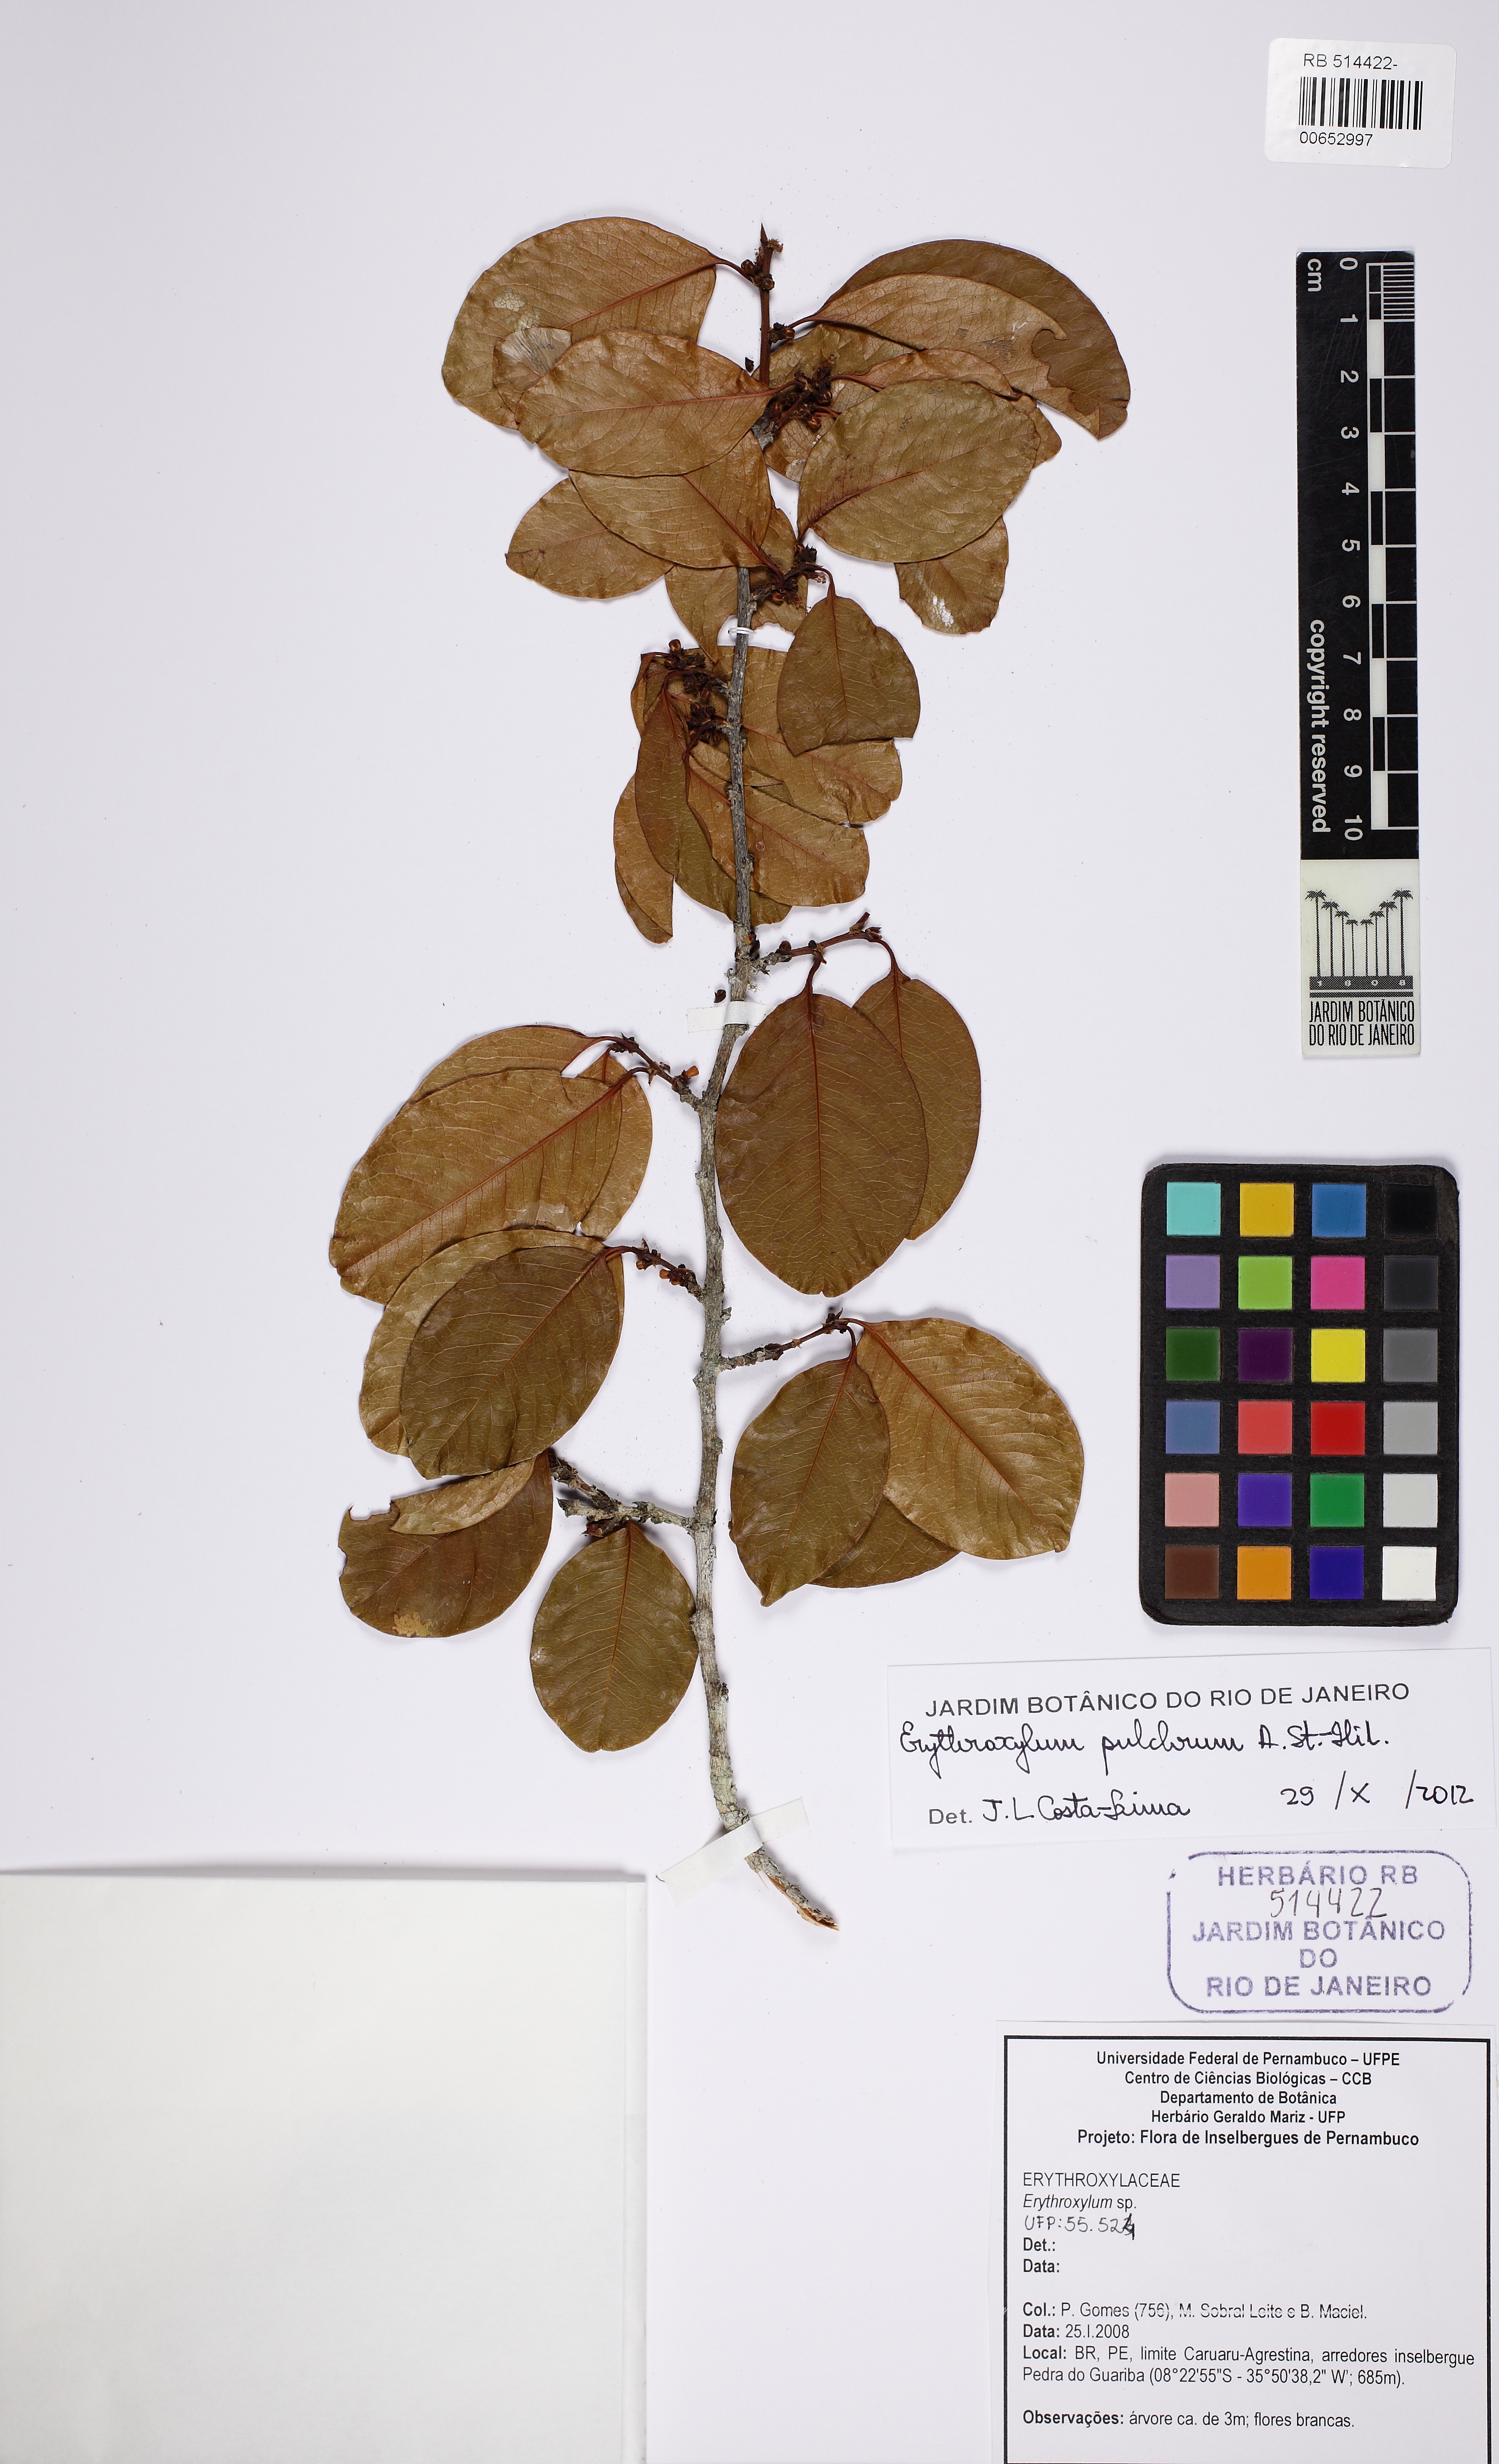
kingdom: Plantae
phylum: Tracheophyta
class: Magnoliopsida
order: Malpighiales
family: Erythroxylaceae
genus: Erythroxylum
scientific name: Erythroxylum pulchrum
